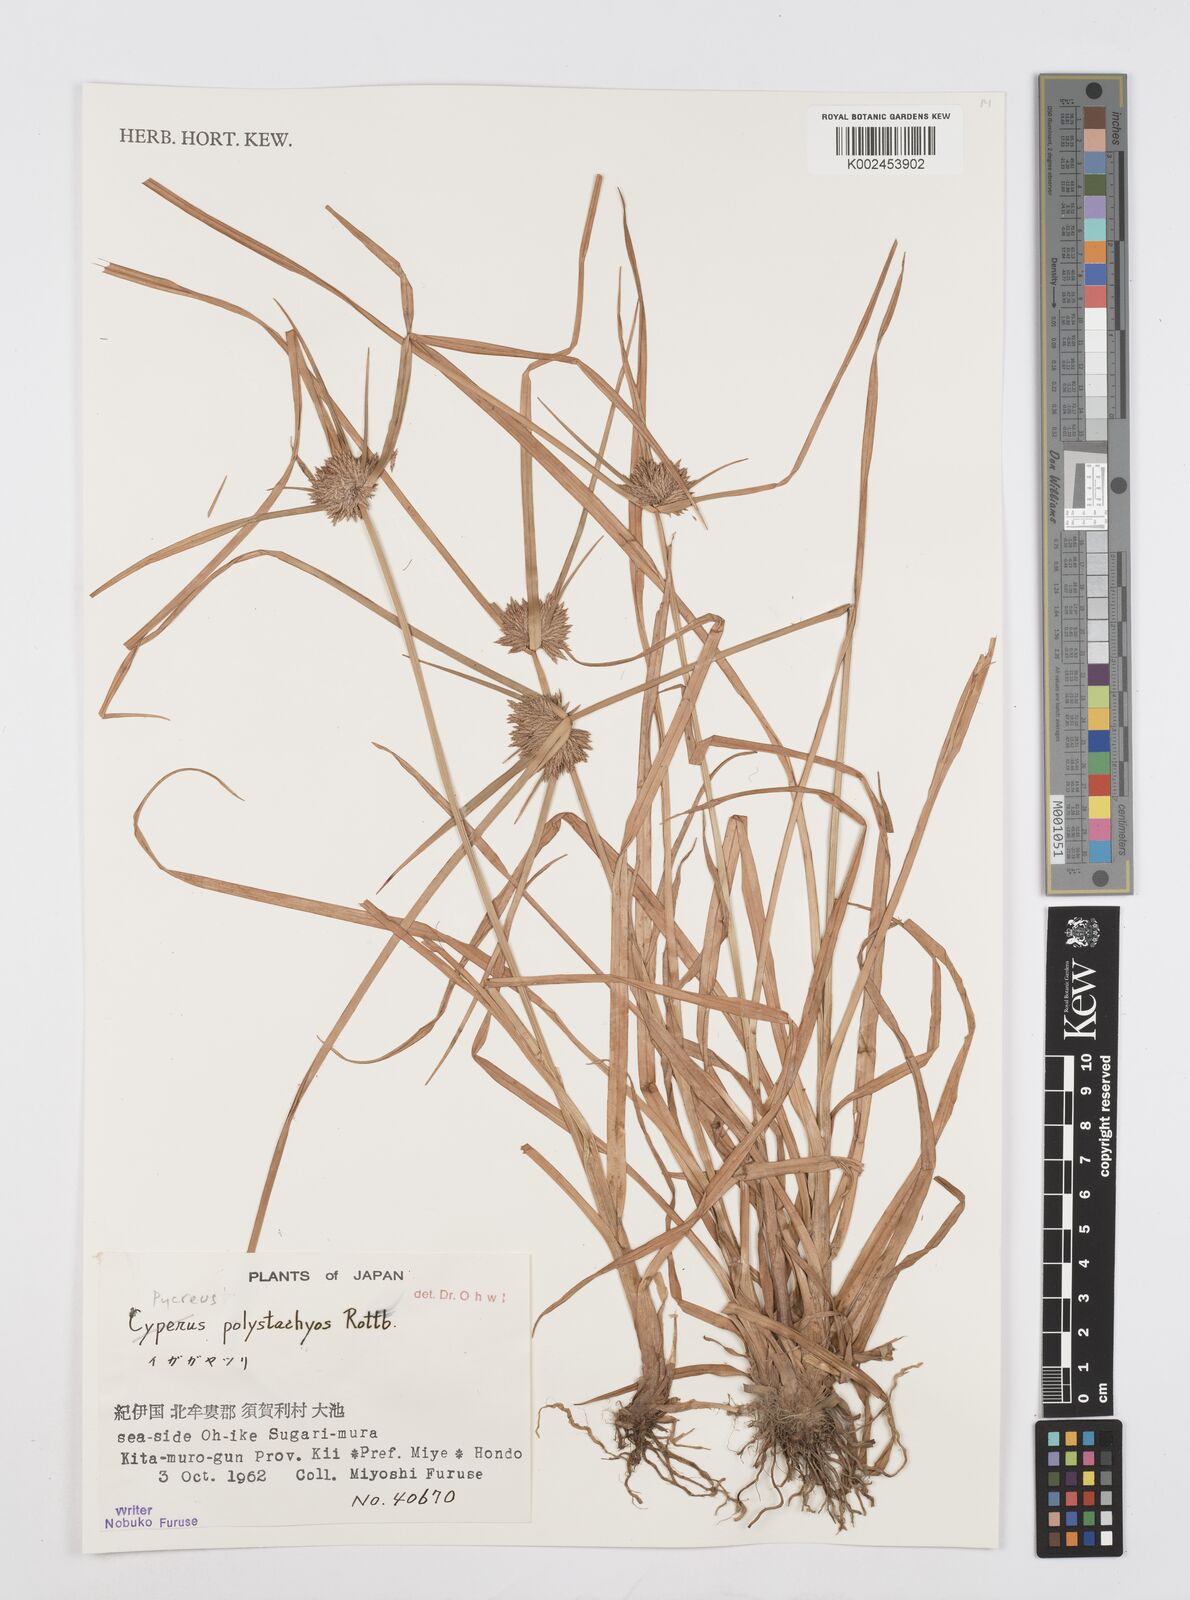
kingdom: Plantae
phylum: Tracheophyta
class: Liliopsida
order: Poales
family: Cyperaceae
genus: Cyperus
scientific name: Cyperus polystachyos
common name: Bunchy flat sedge
